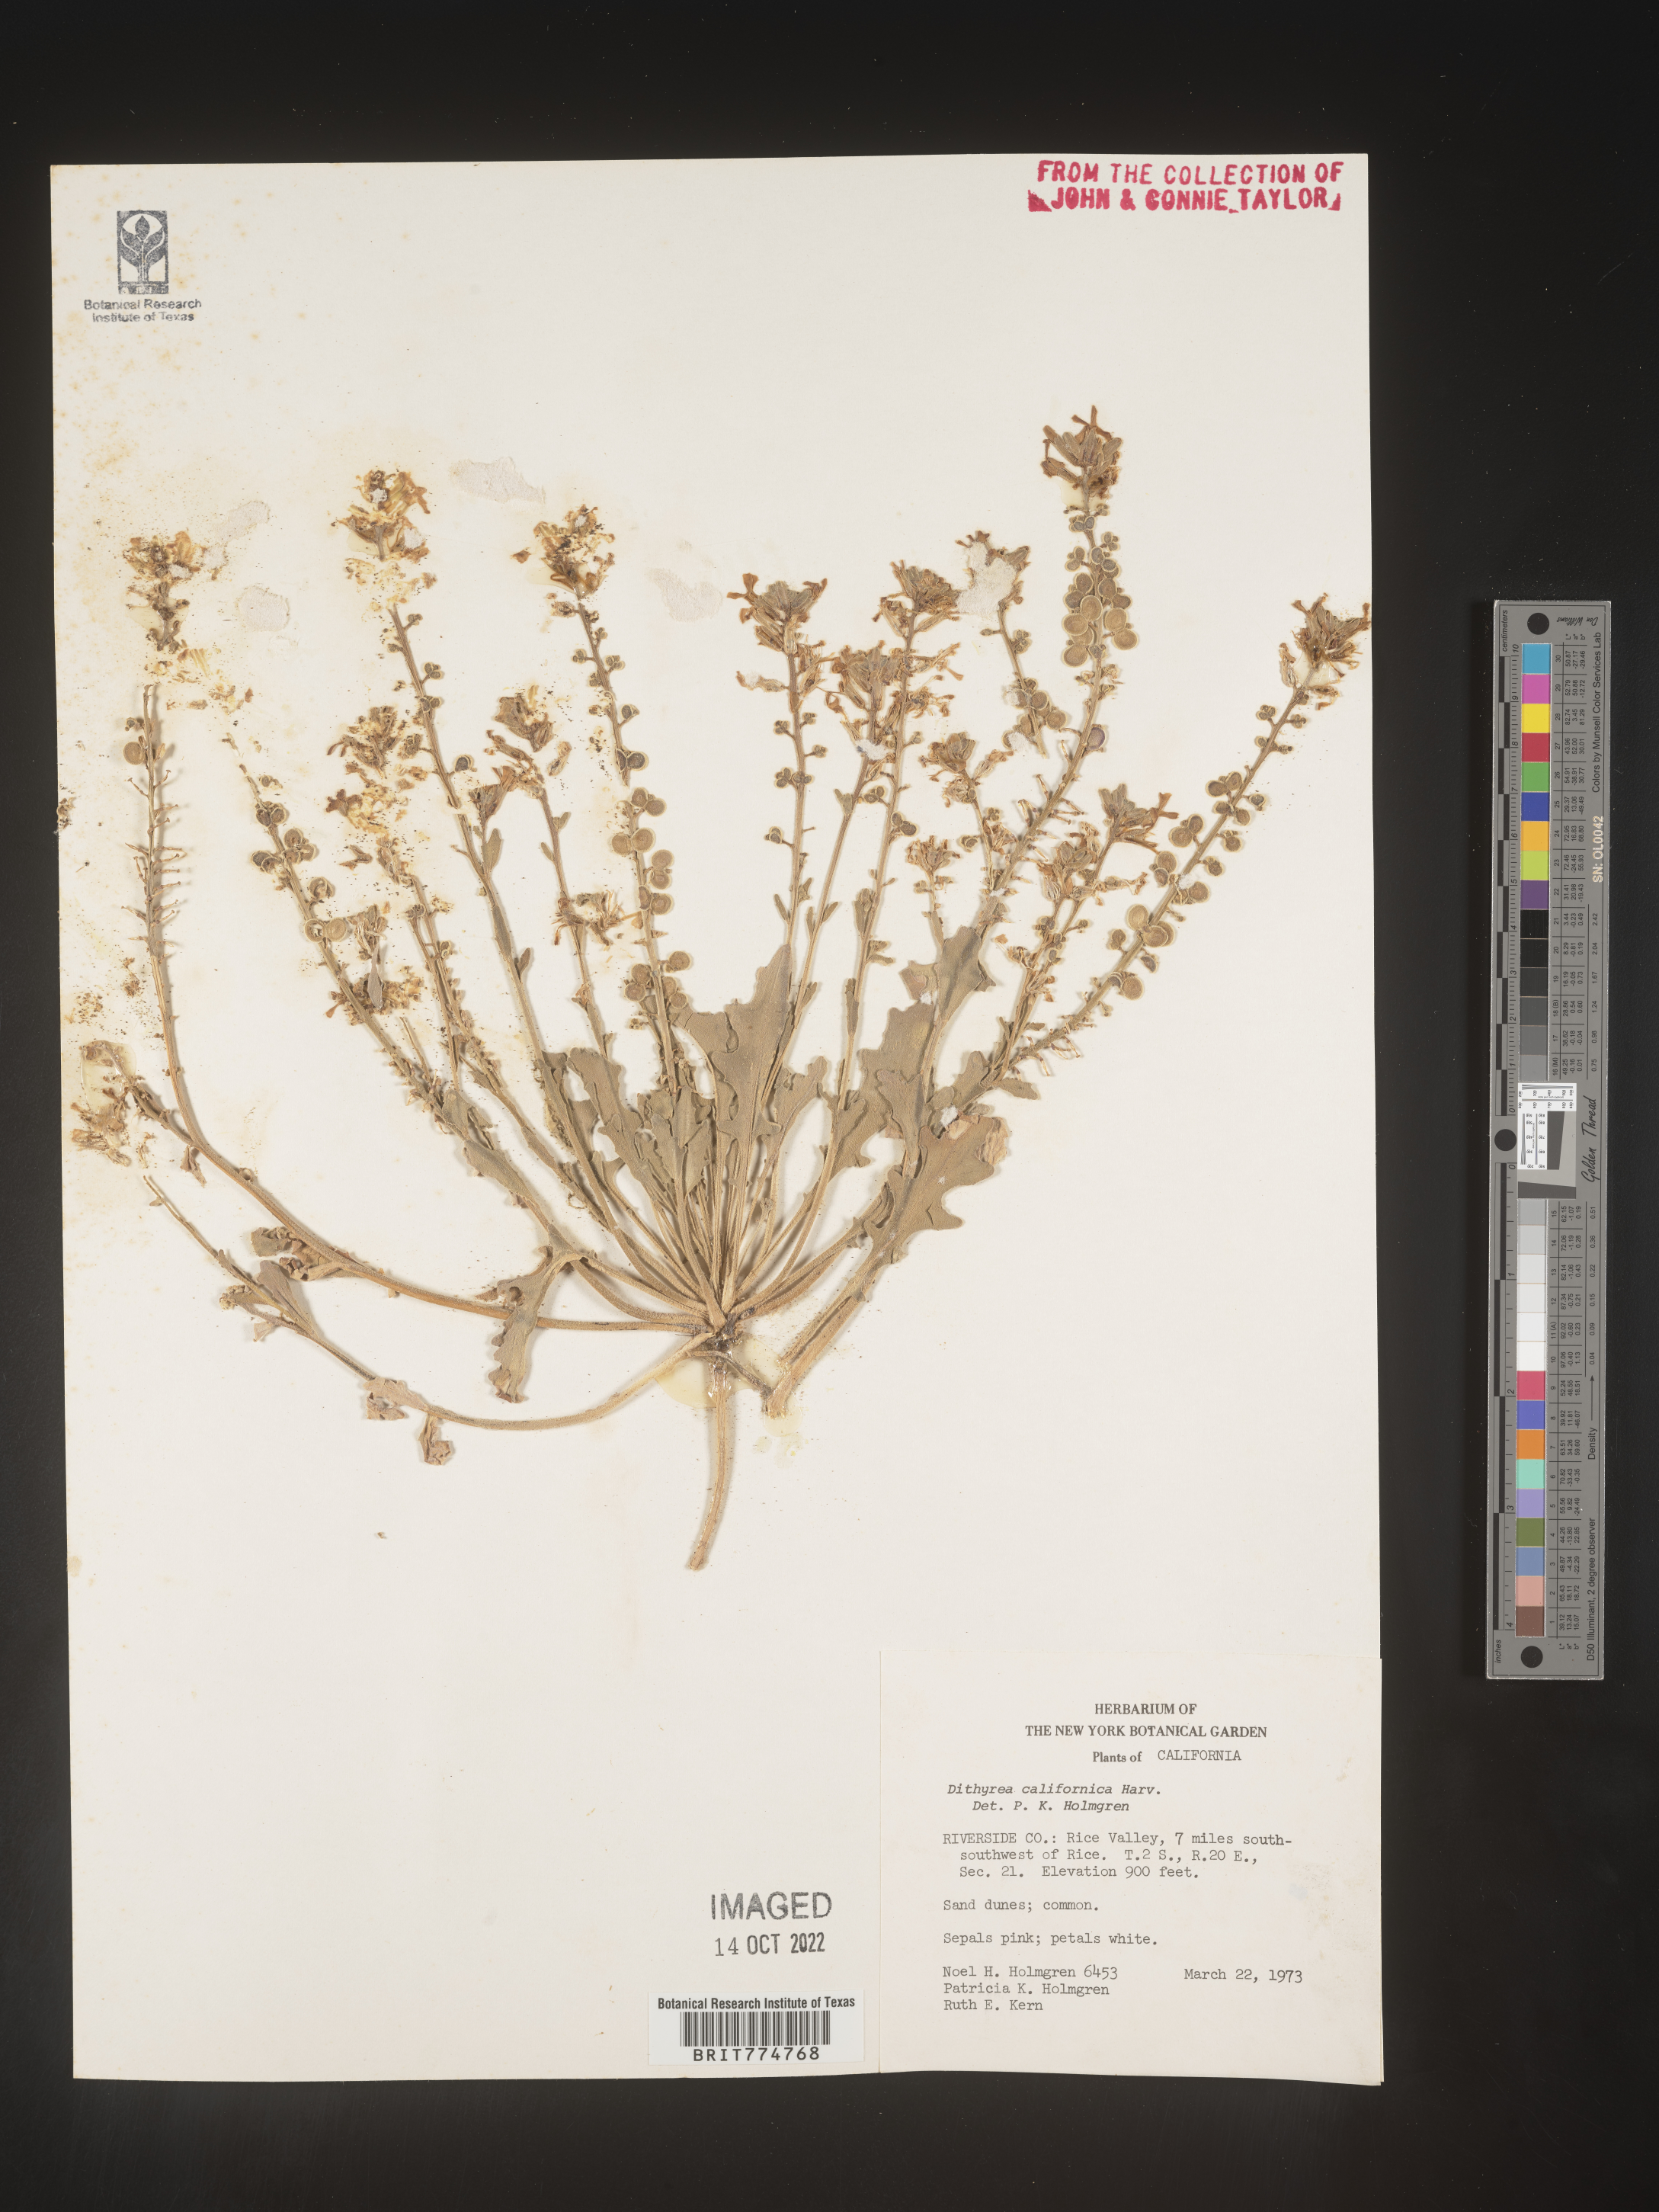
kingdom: Plantae
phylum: Tracheophyta
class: Magnoliopsida
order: Brassicales
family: Brassicaceae
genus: Dithyrea
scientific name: Dithyrea californica
